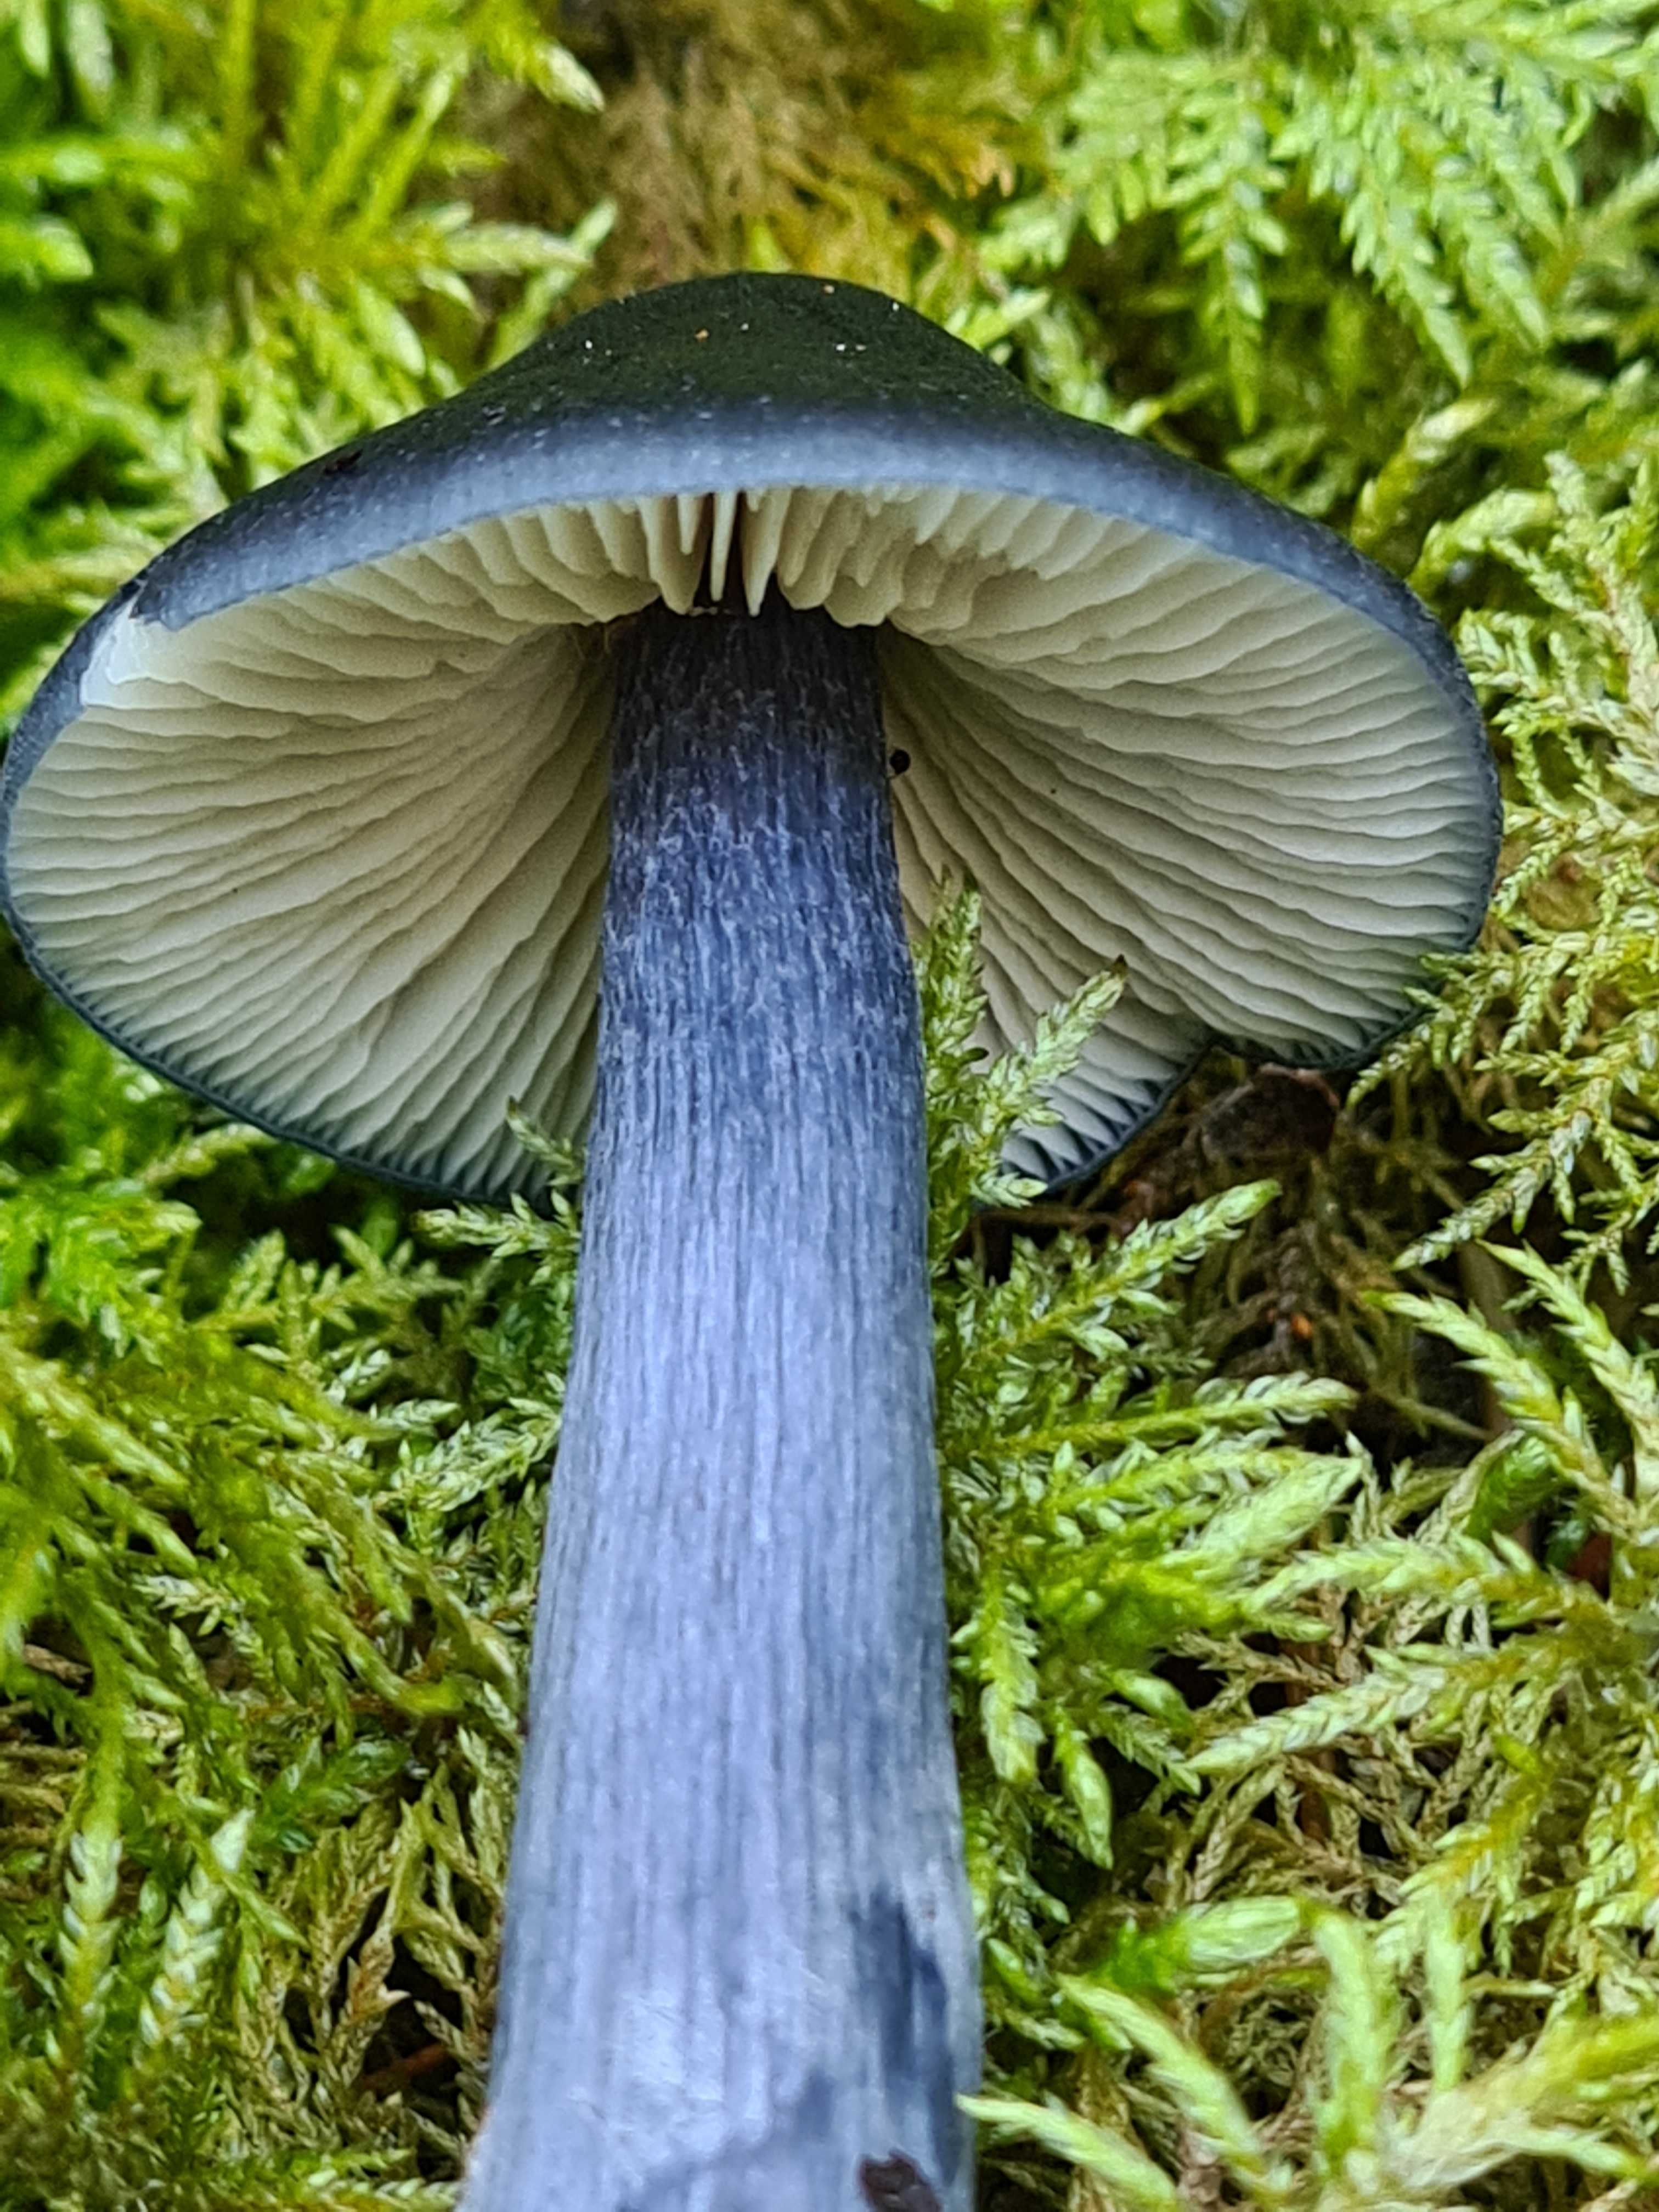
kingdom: Fungi
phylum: Basidiomycota
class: Agaricomycetes
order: Agaricales
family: Entolomataceae
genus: Entocybe
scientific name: Entocybe nitida
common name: stålblå rødblad
